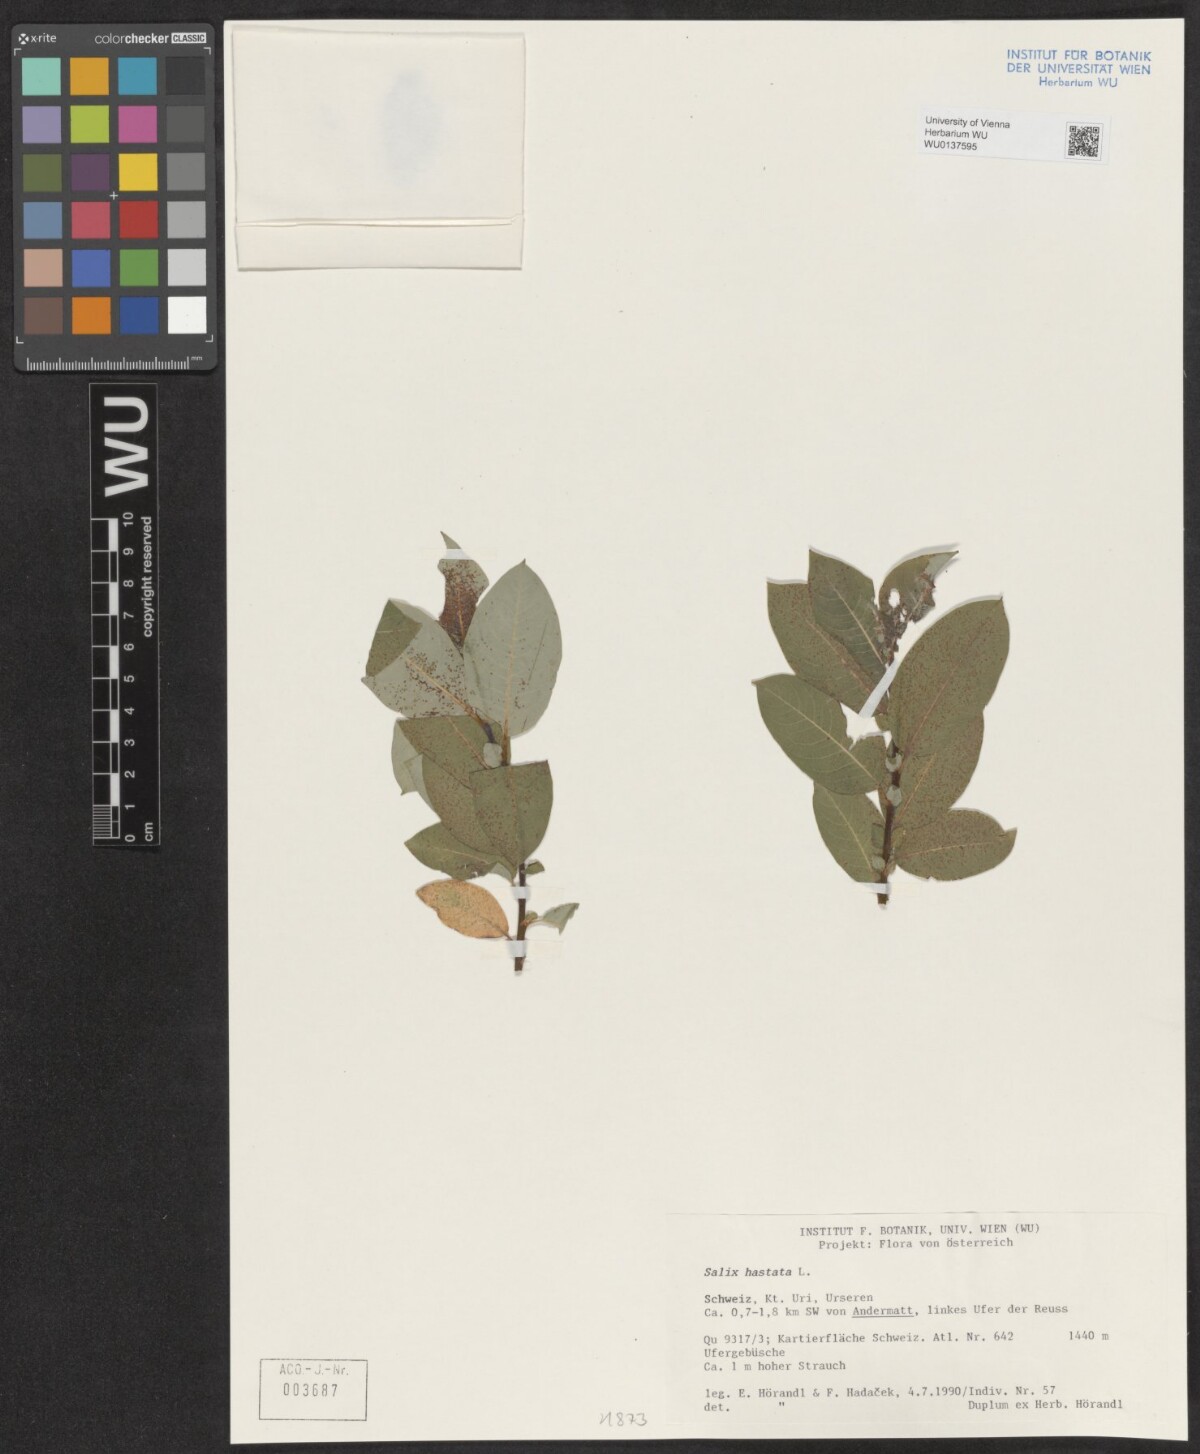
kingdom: Plantae
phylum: Tracheophyta
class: Magnoliopsida
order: Malpighiales
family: Salicaceae
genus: Salix
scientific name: Salix hastata
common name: Halberd willow
